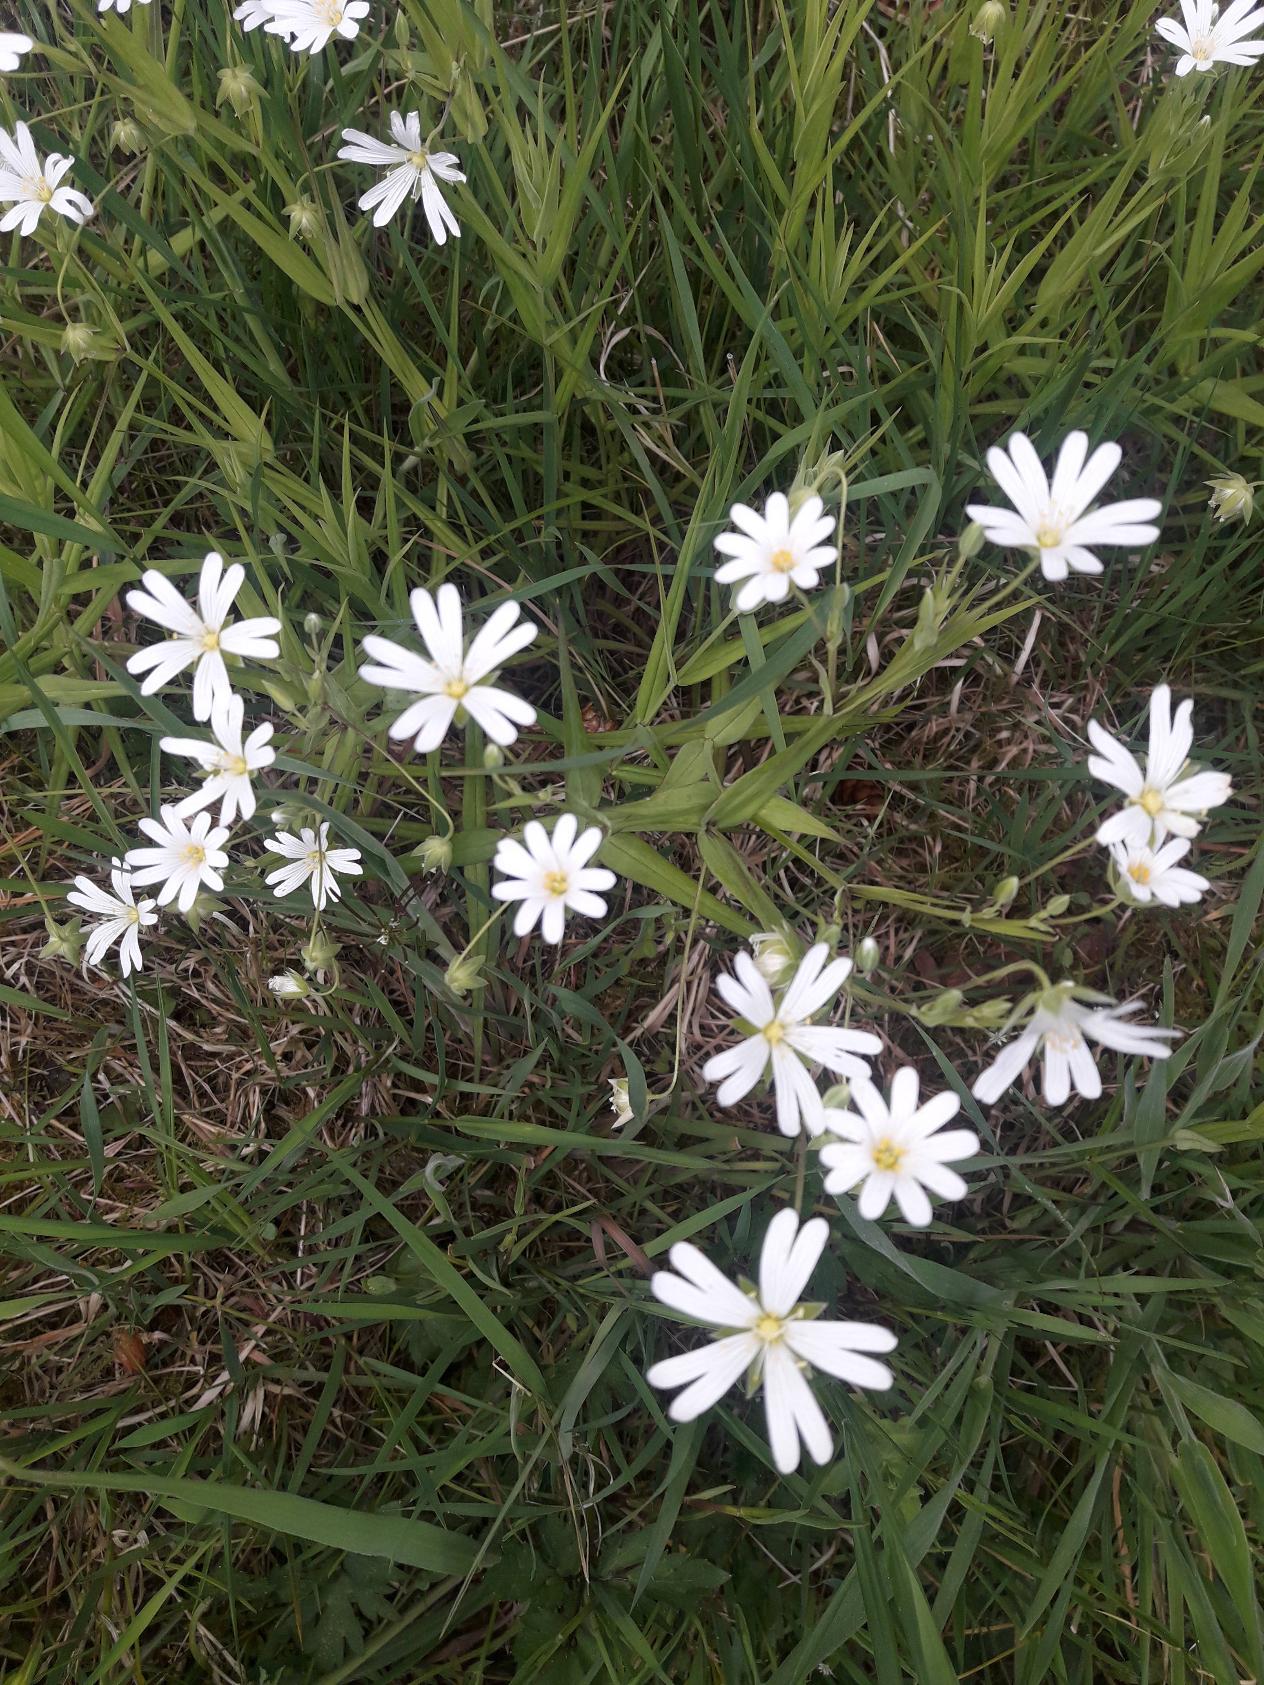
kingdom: Plantae
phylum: Tracheophyta
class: Magnoliopsida
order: Caryophyllales
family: Caryophyllaceae
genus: Rabelera
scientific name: Rabelera holostea
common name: Stor fladstjerne
